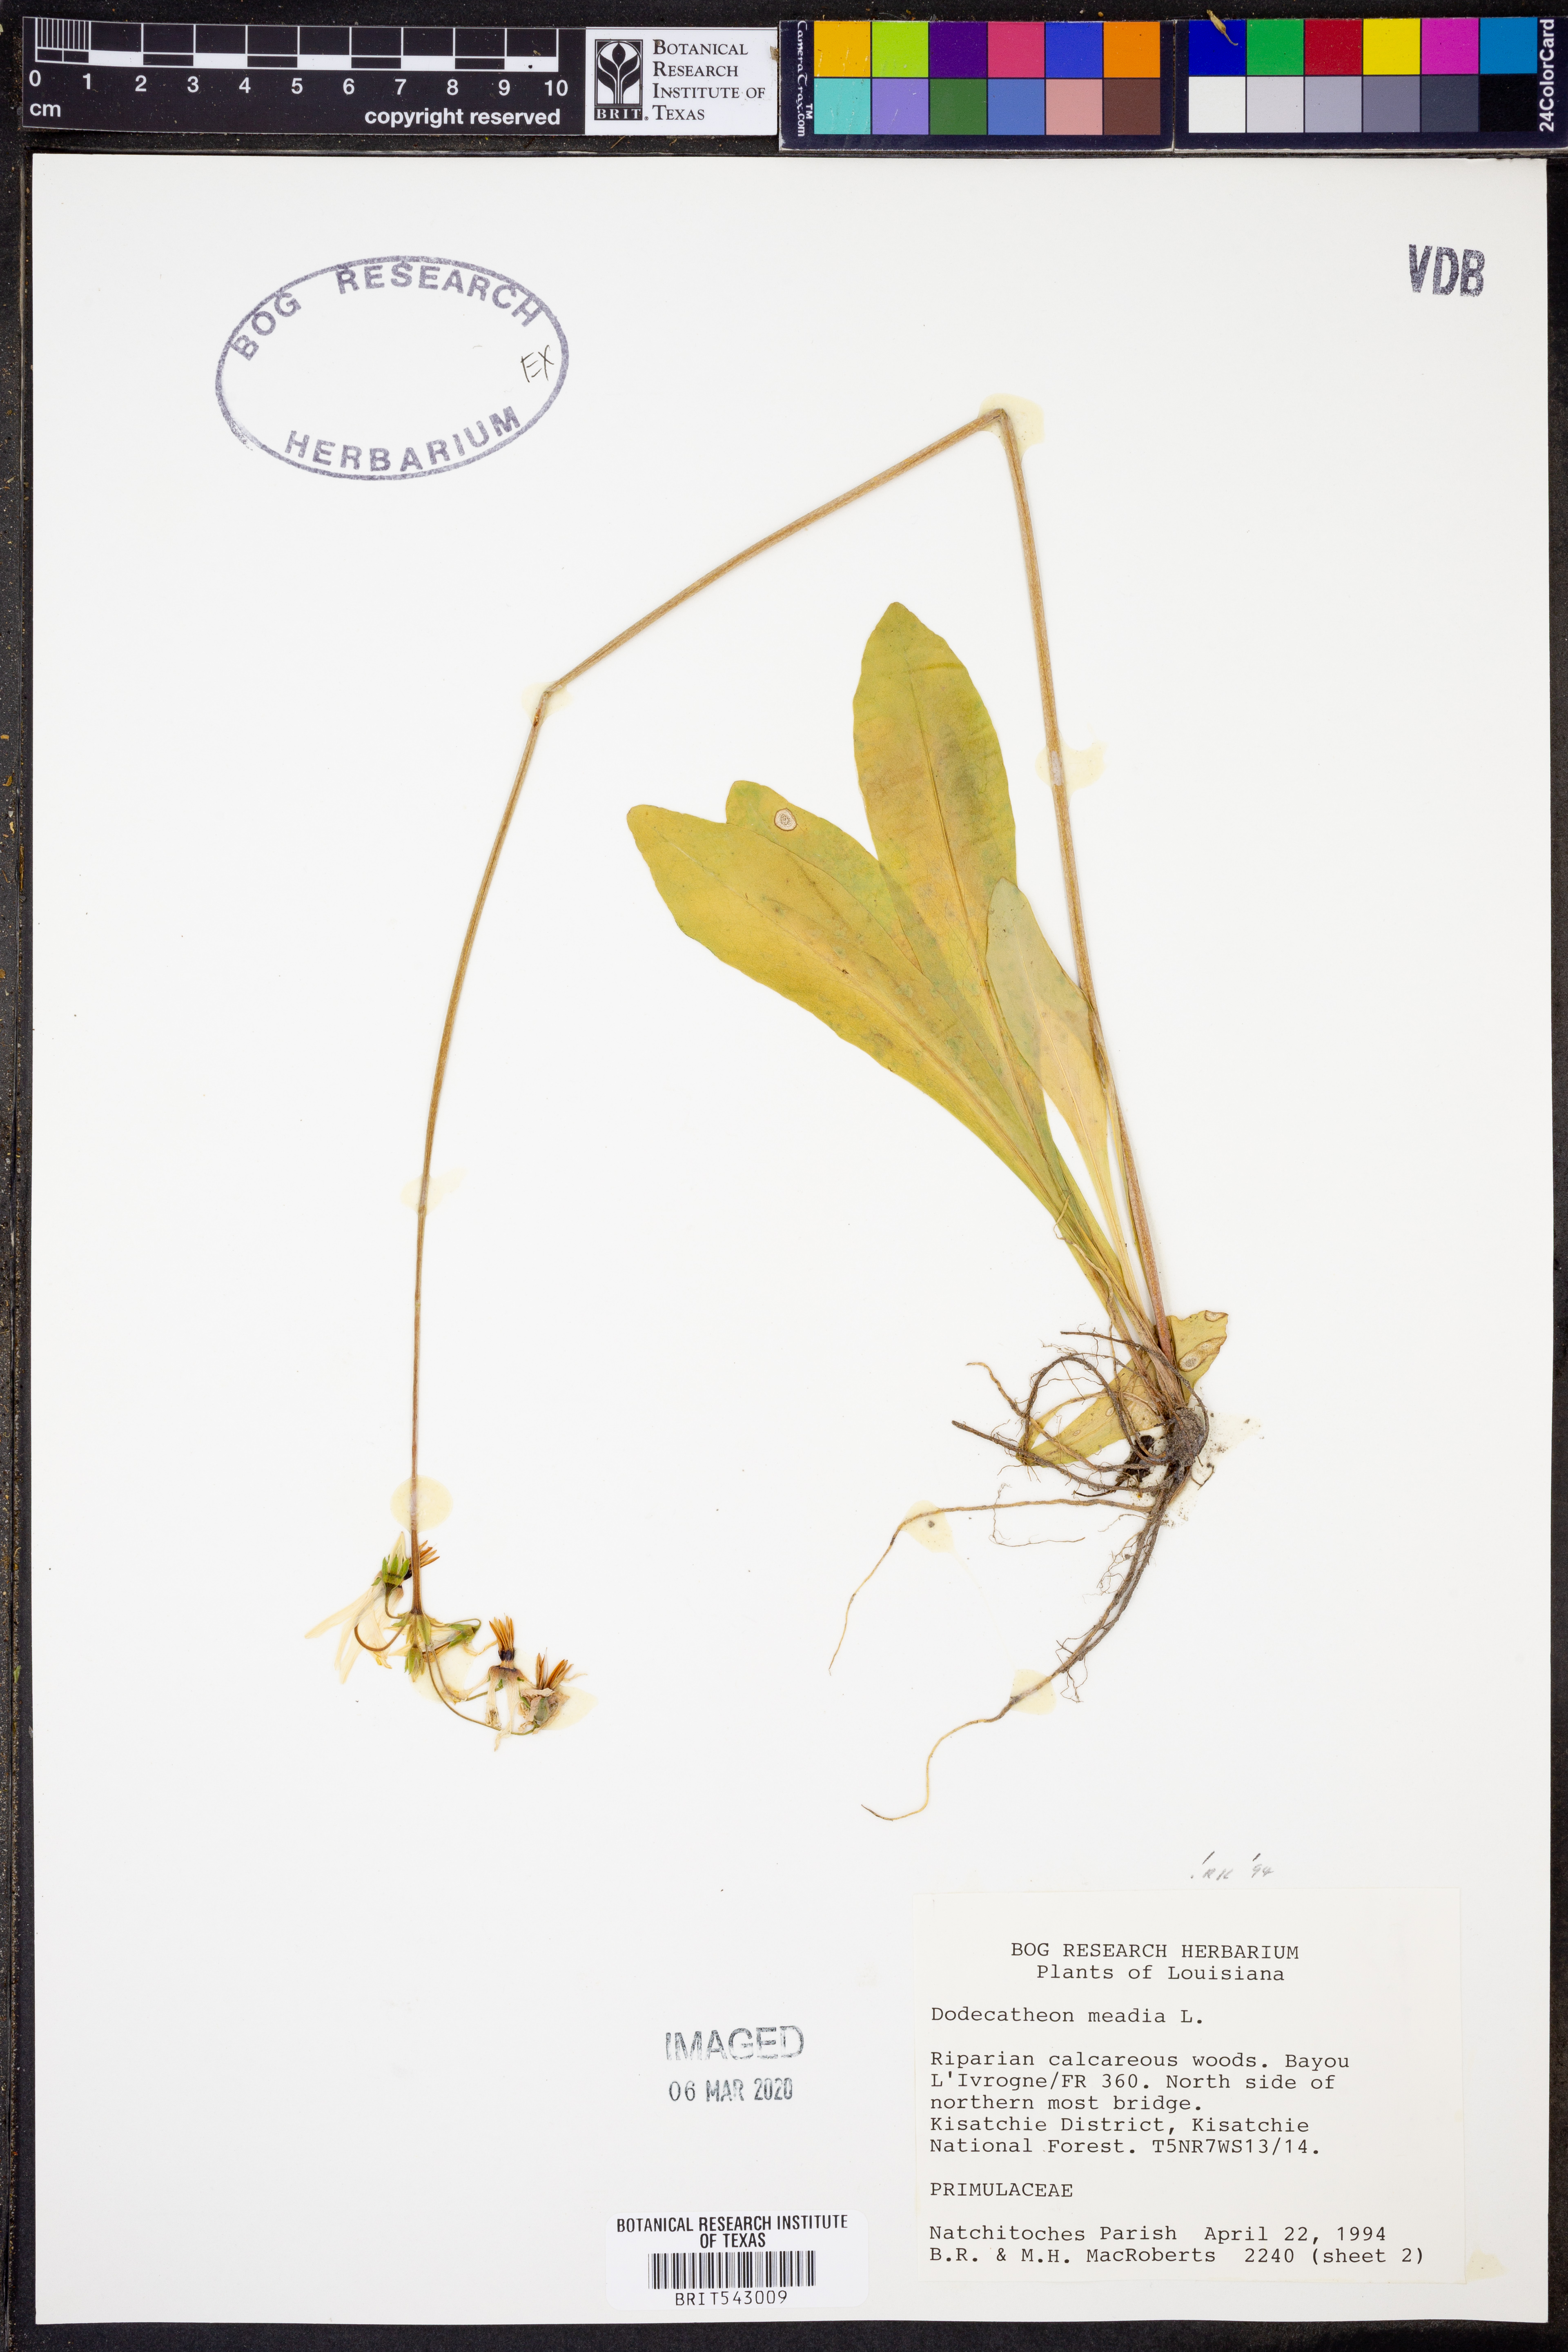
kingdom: Plantae
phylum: Tracheophyta
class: Magnoliopsida
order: Ericales
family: Primulaceae
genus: Dodecatheon
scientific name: Dodecatheon meadia
